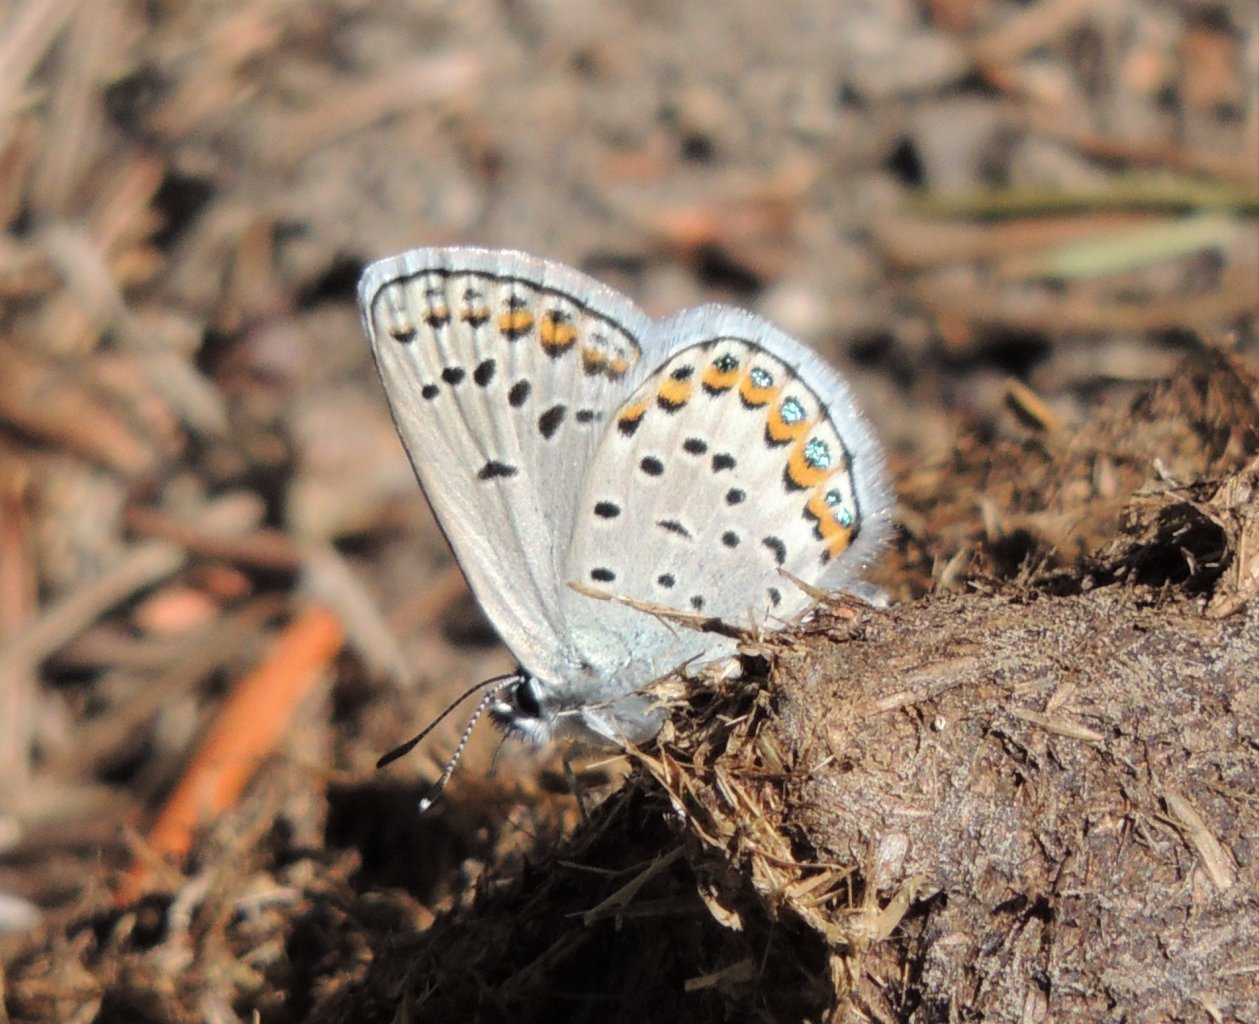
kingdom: Animalia
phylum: Arthropoda
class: Insecta
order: Lepidoptera
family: Lycaenidae
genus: Lycaeides
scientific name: Lycaeides melissa
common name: Melissa Blue
